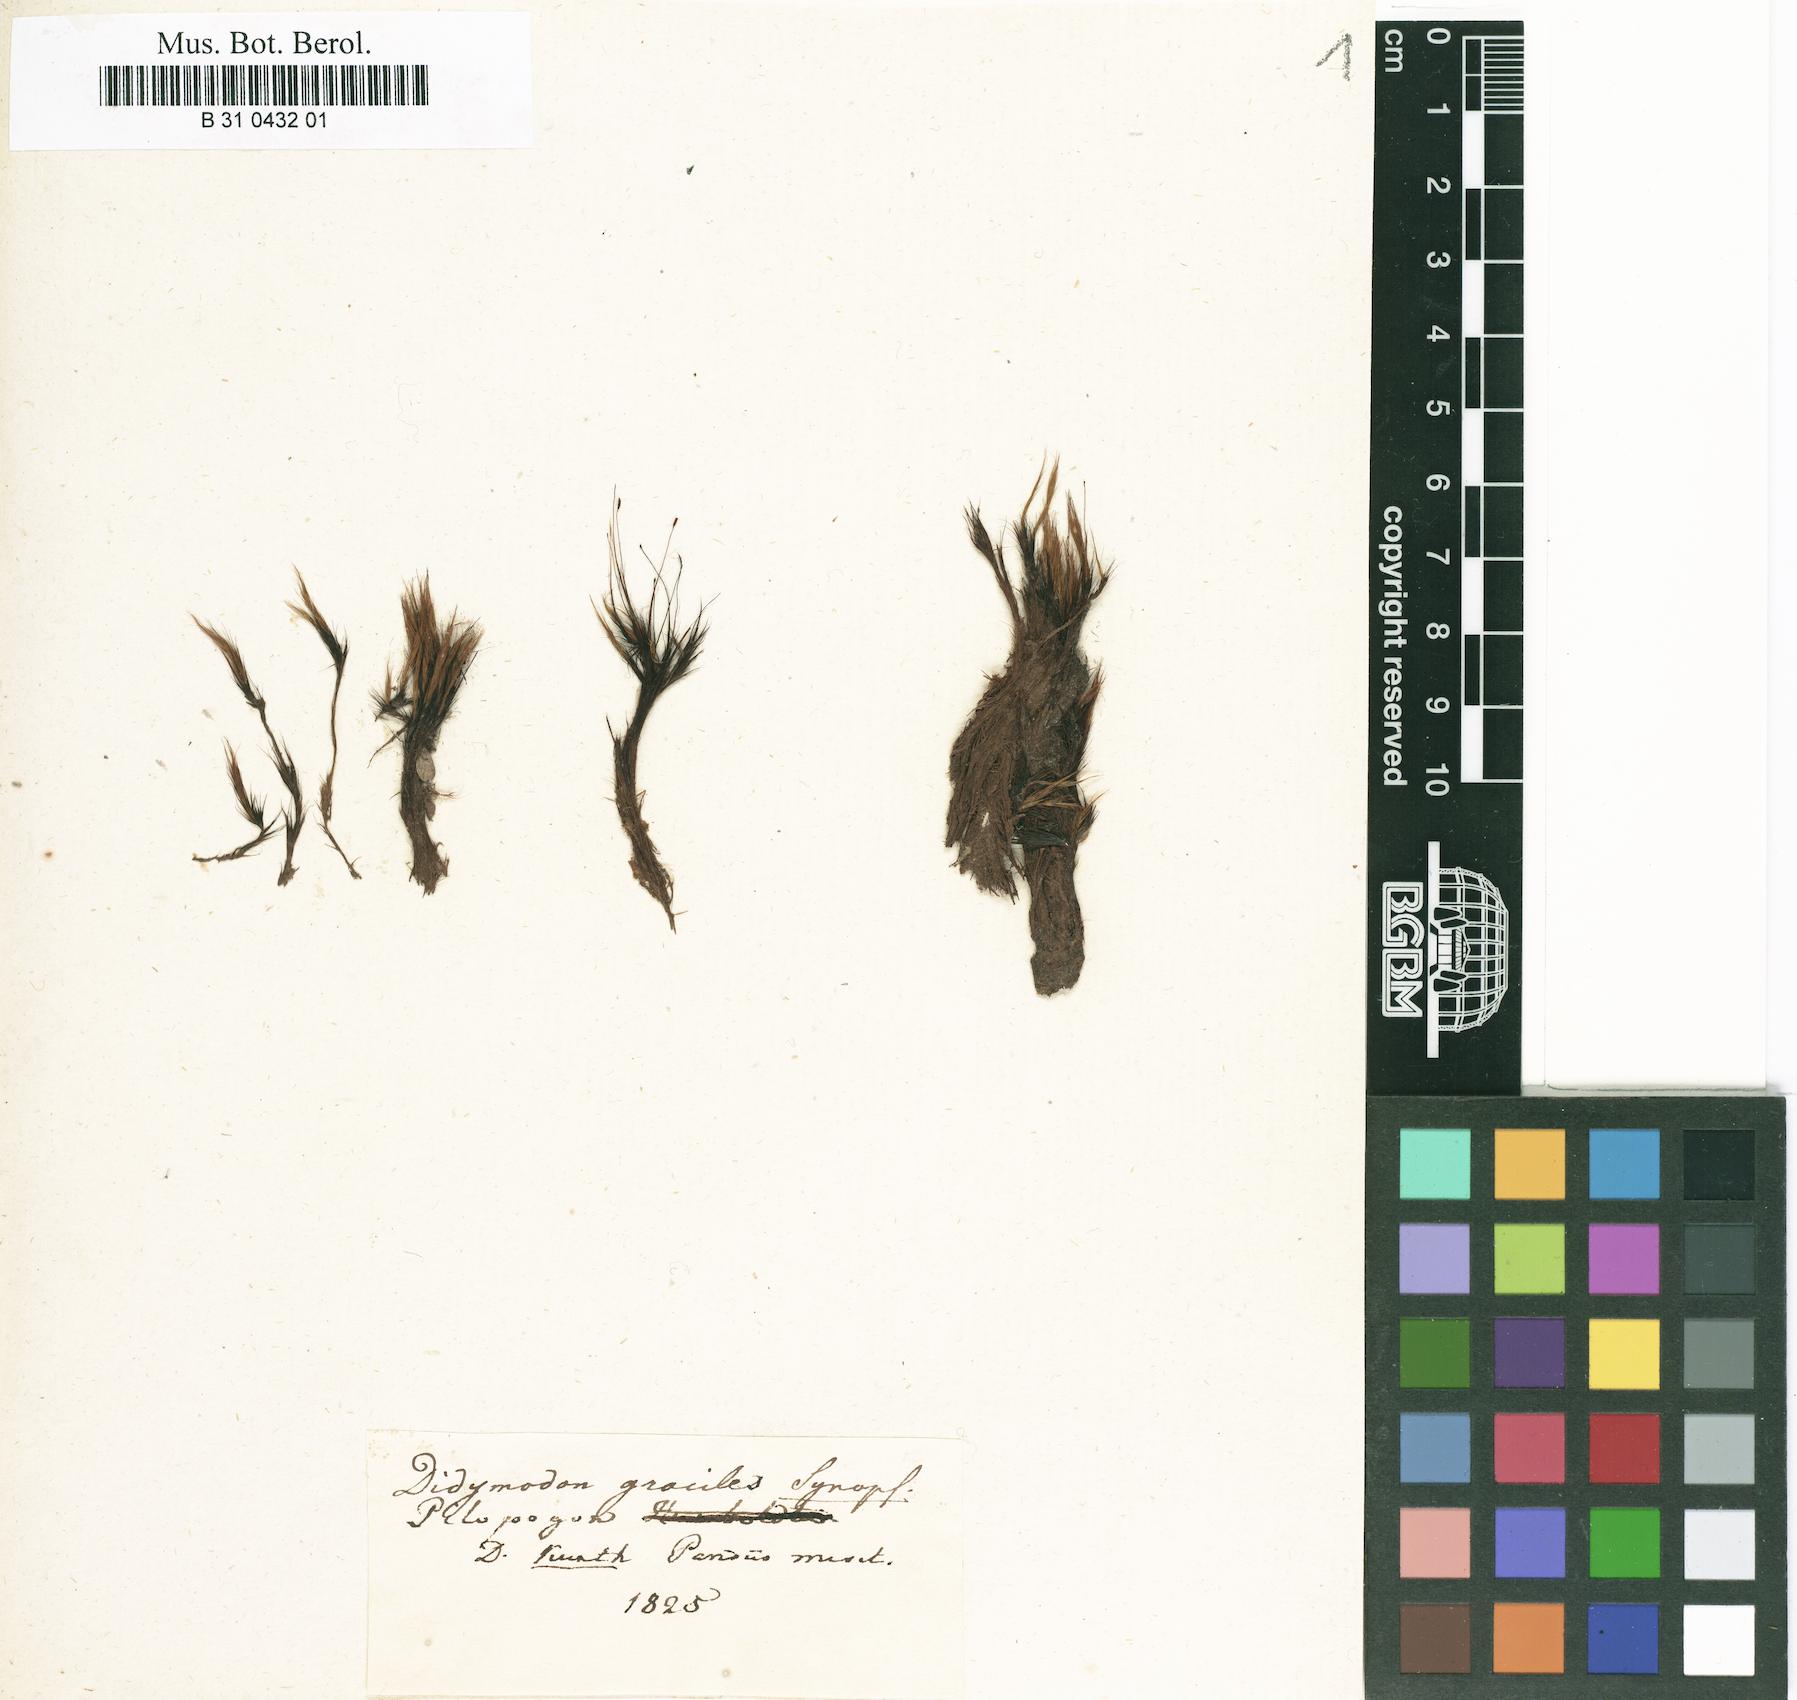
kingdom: Plantae
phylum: Bryophyta
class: Bryopsida
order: Dicranales
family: Leucobryaceae
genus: Pilopogon
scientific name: Pilopogon guadalupensis
